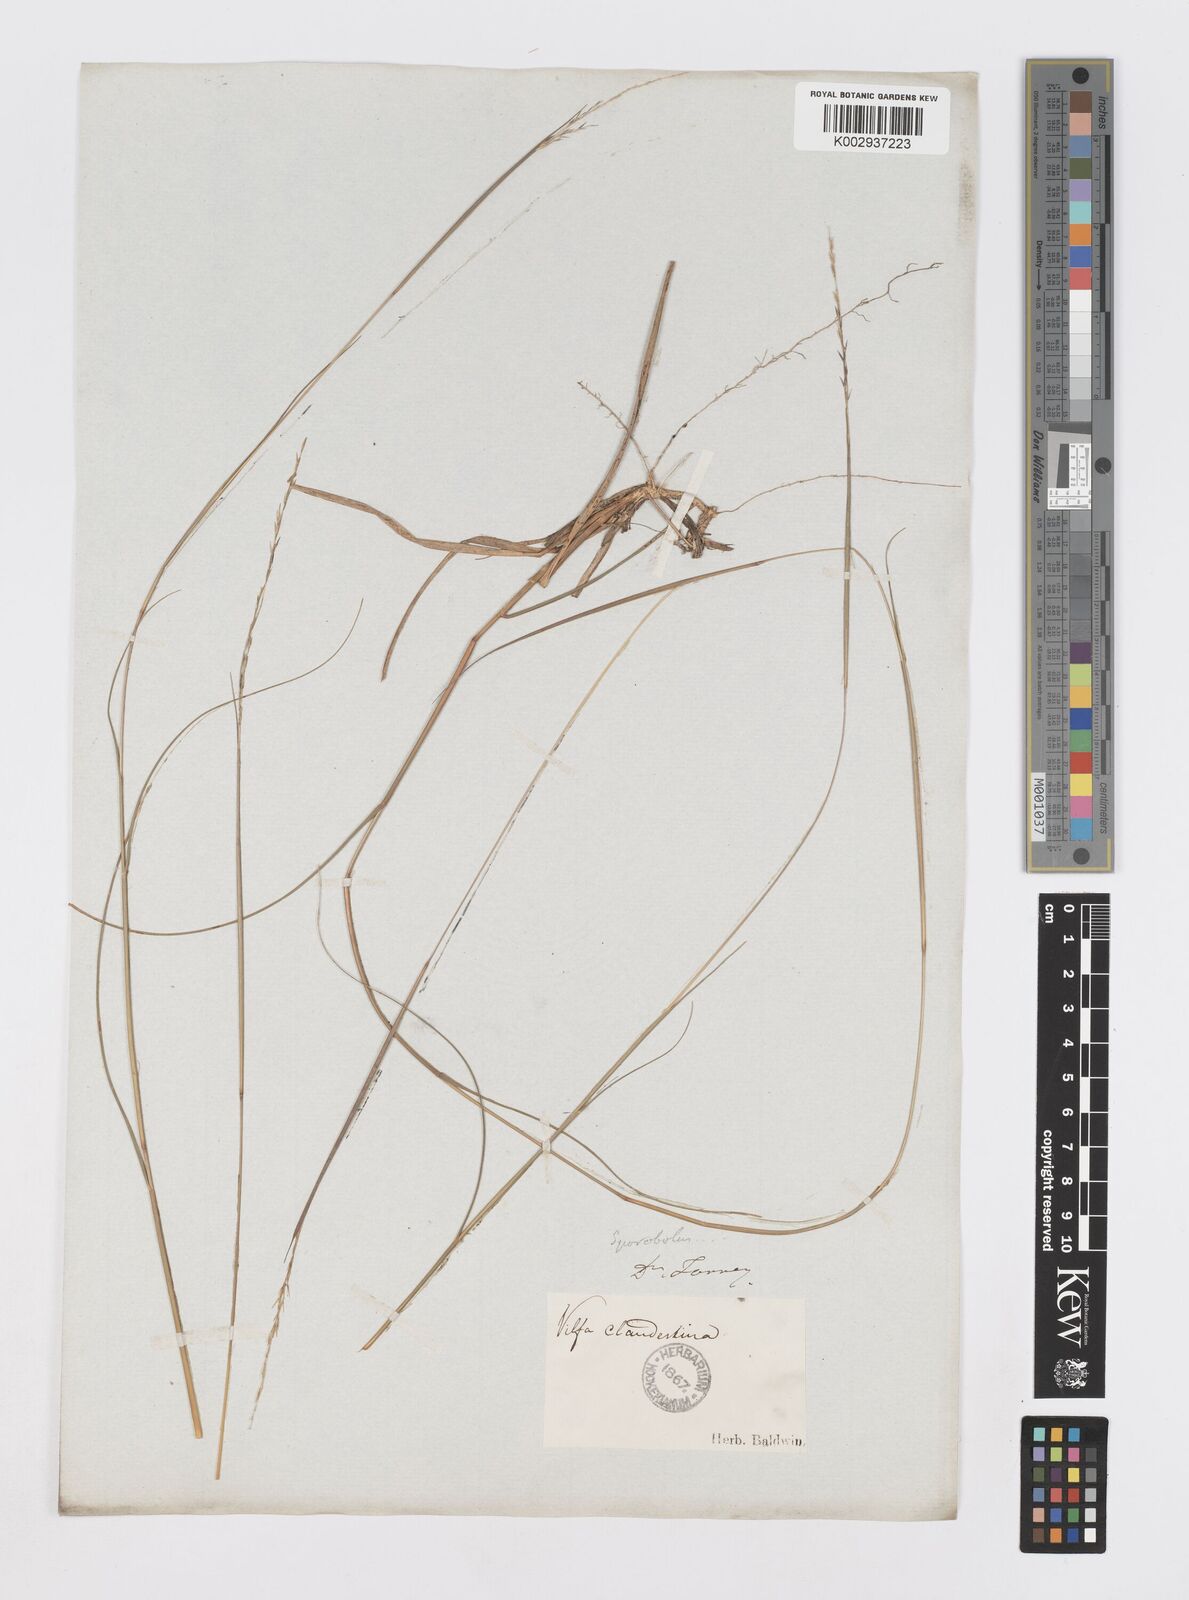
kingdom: Plantae
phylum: Tracheophyta
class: Liliopsida
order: Poales
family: Poaceae
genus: Sporobolus
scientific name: Sporobolus clandestinus
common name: Hidden dropseed
